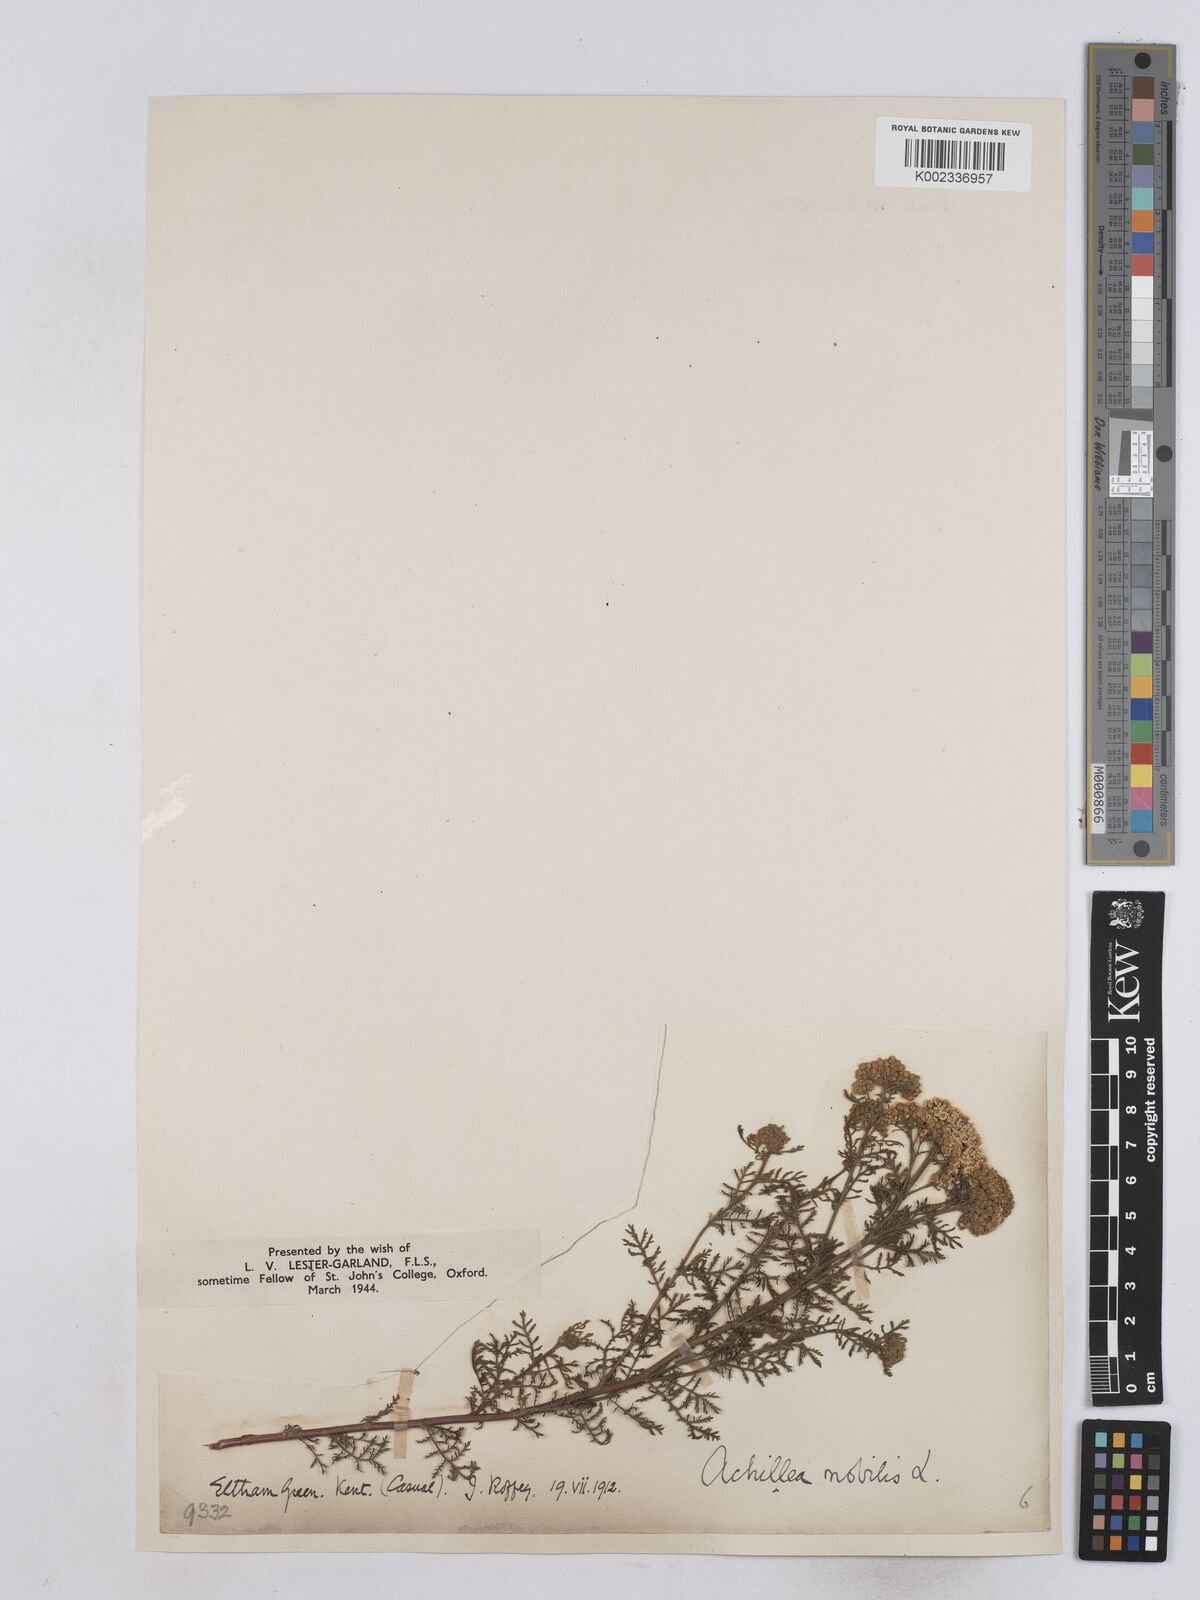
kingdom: Plantae
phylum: Tracheophyta
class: Magnoliopsida
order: Asterales
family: Asteraceae
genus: Achillea
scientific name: Achillea nobilis
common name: Noble yarrow
